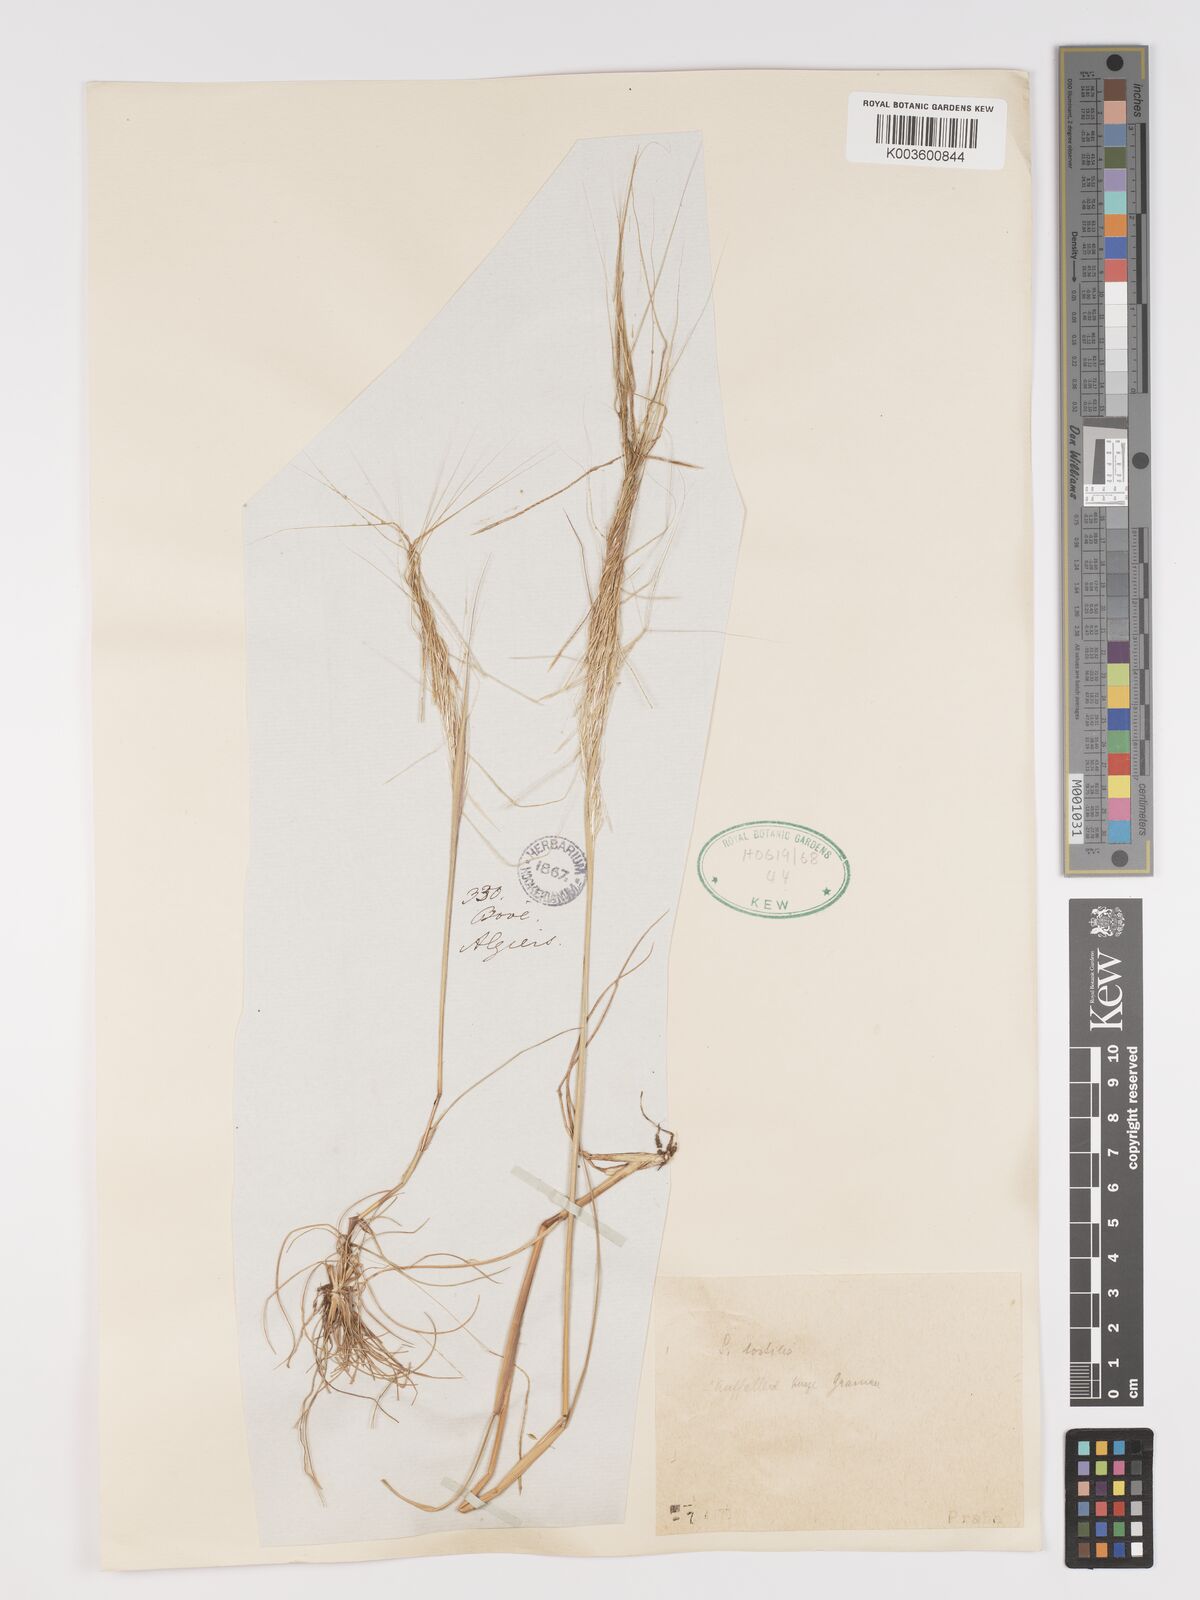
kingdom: Plantae
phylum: Tracheophyta
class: Liliopsida
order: Poales
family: Poaceae
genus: Stipellula
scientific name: Stipellula capensis
